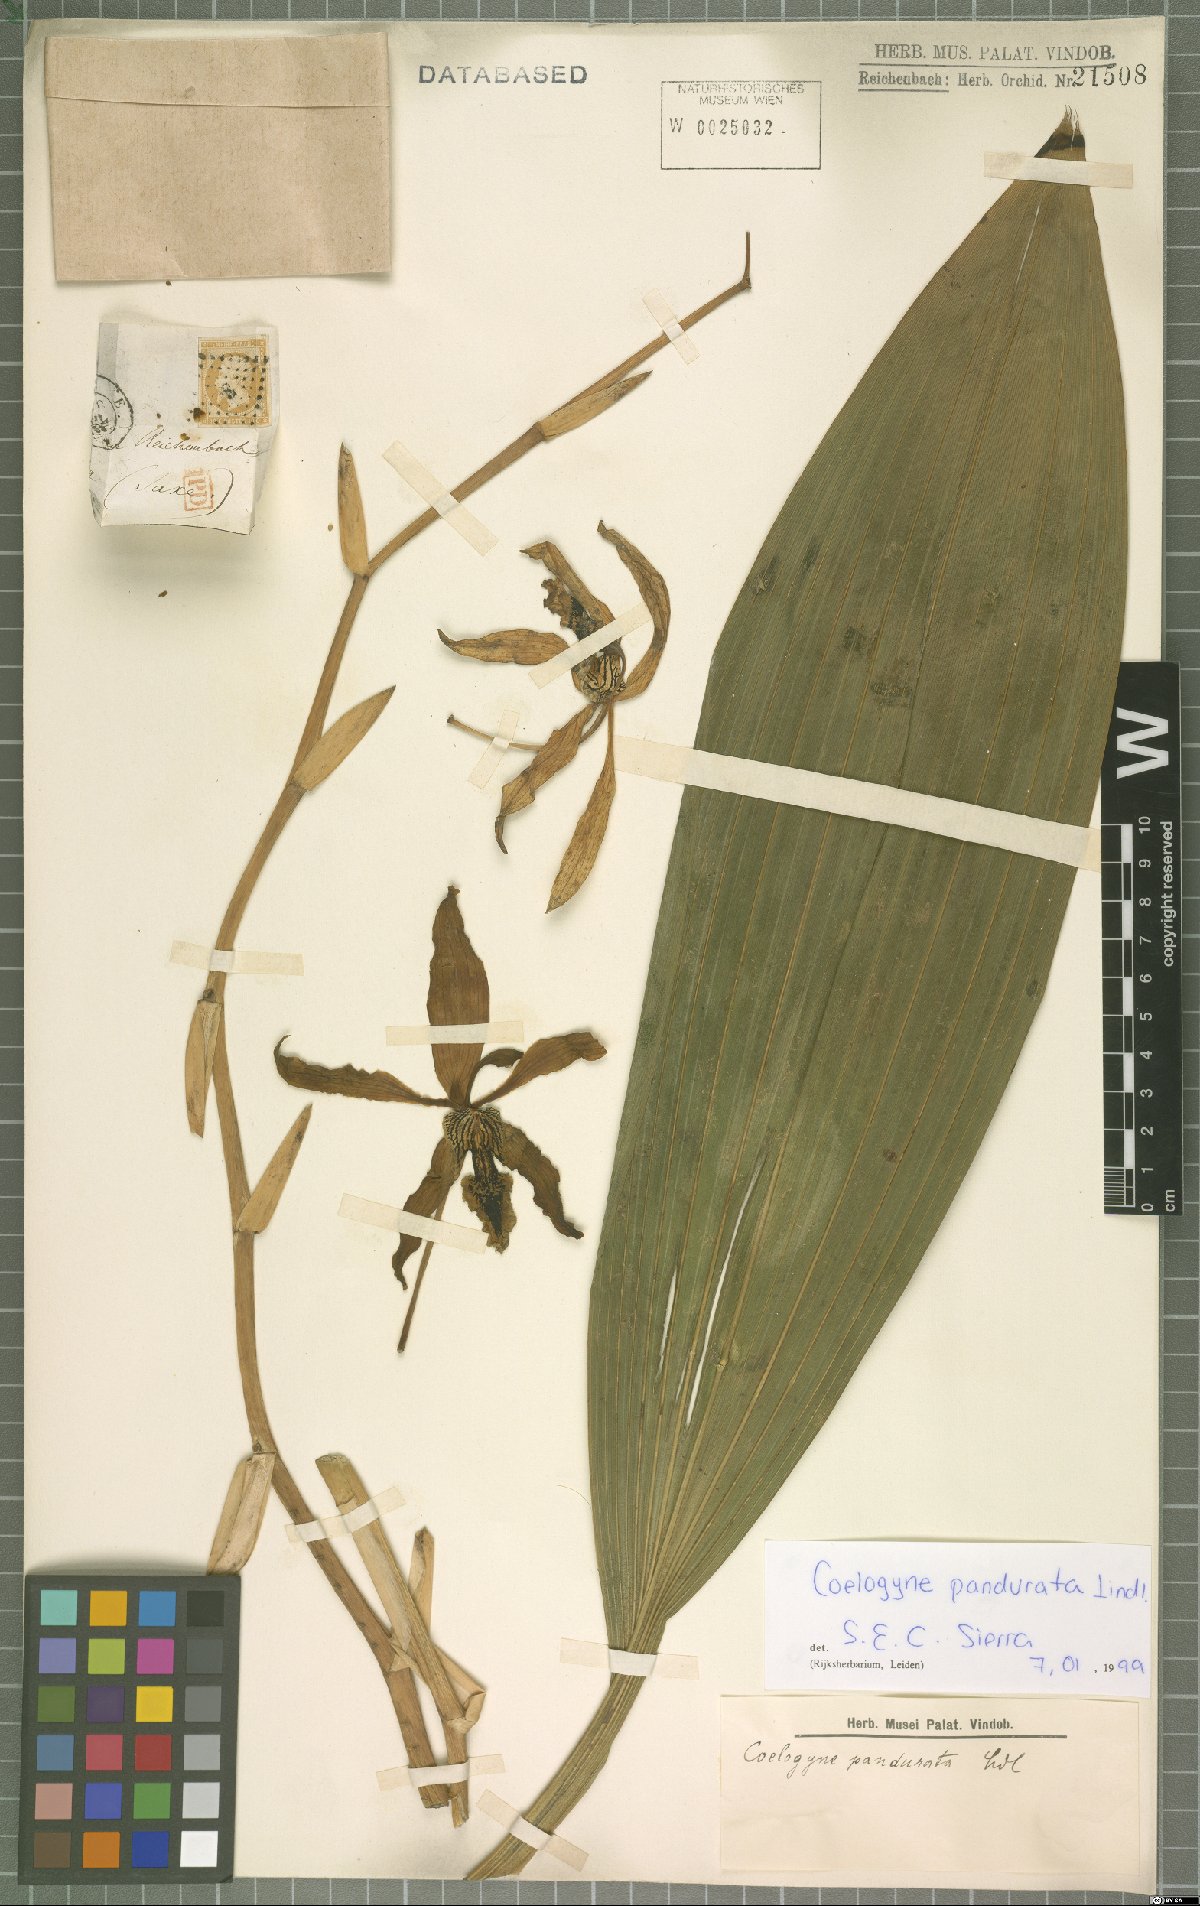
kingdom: Plantae
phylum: Tracheophyta
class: Liliopsida
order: Asparagales
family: Orchidaceae
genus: Coelogyne
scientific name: Coelogyne pandurata
